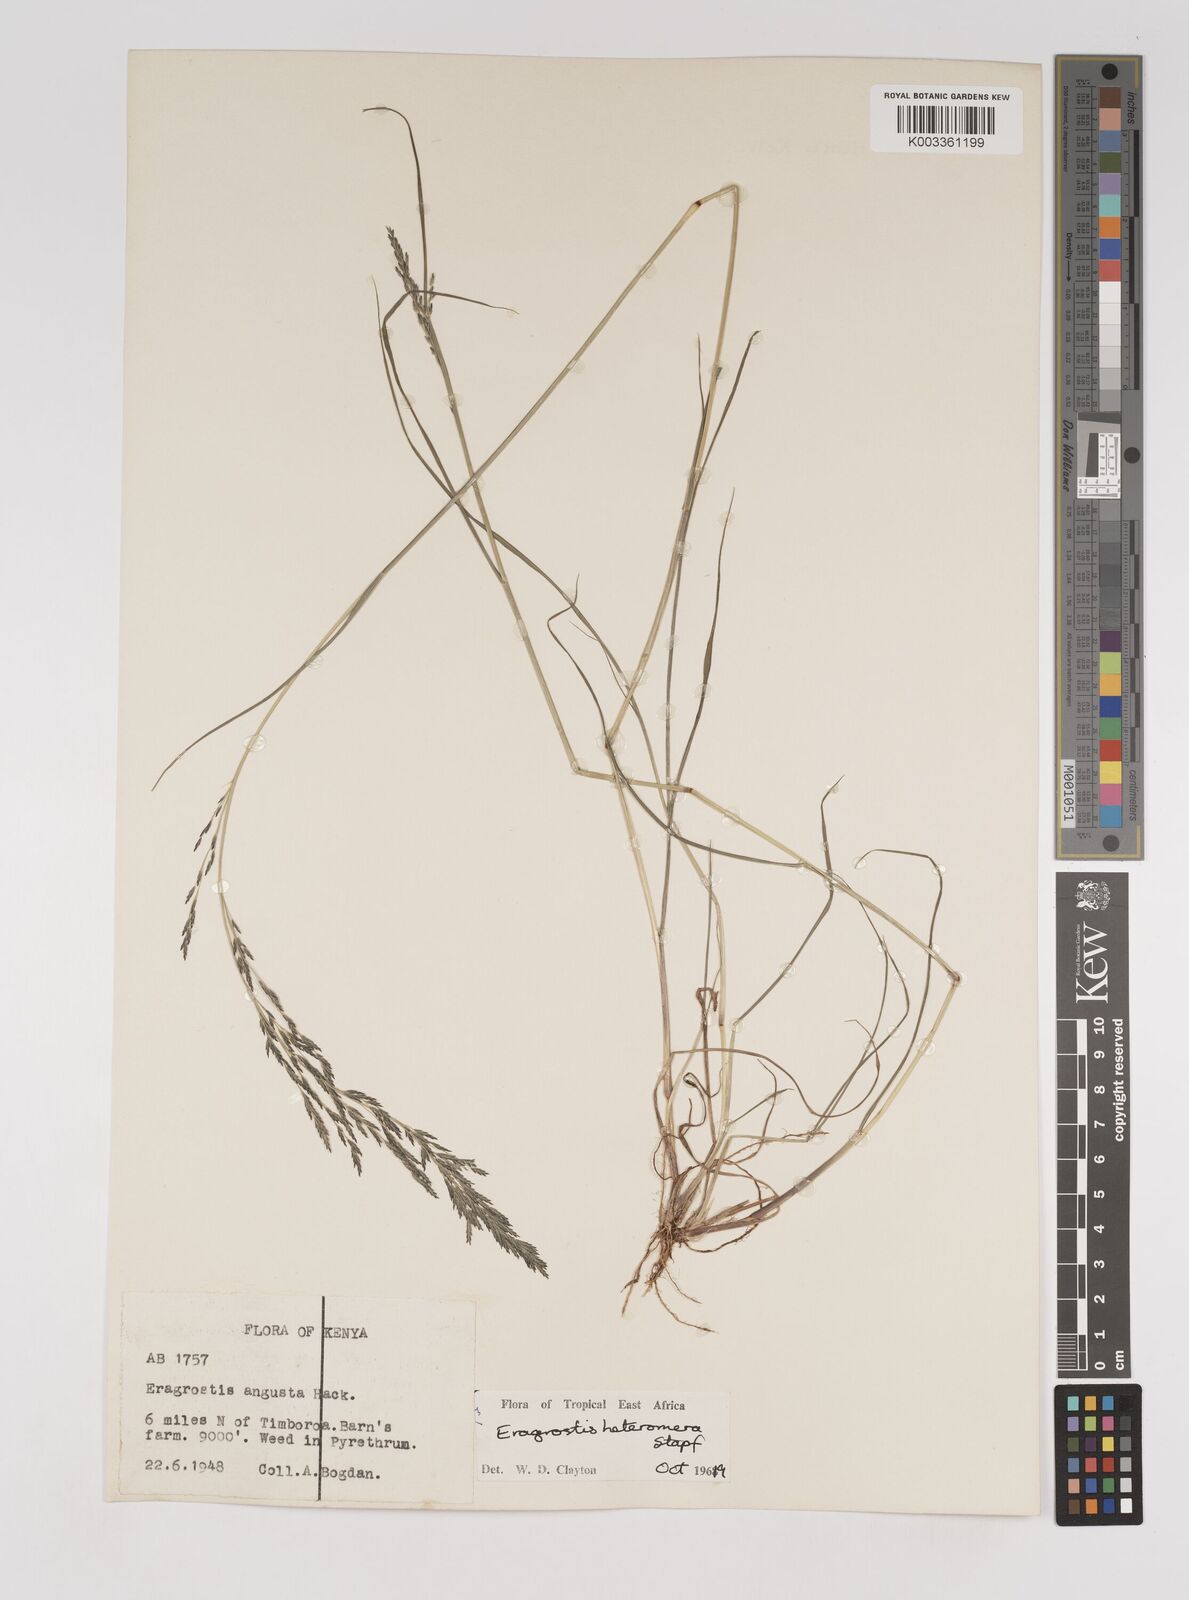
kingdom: Plantae
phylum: Tracheophyta
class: Liliopsida
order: Poales
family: Poaceae
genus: Eragrostis
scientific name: Eragrostis heteromera
